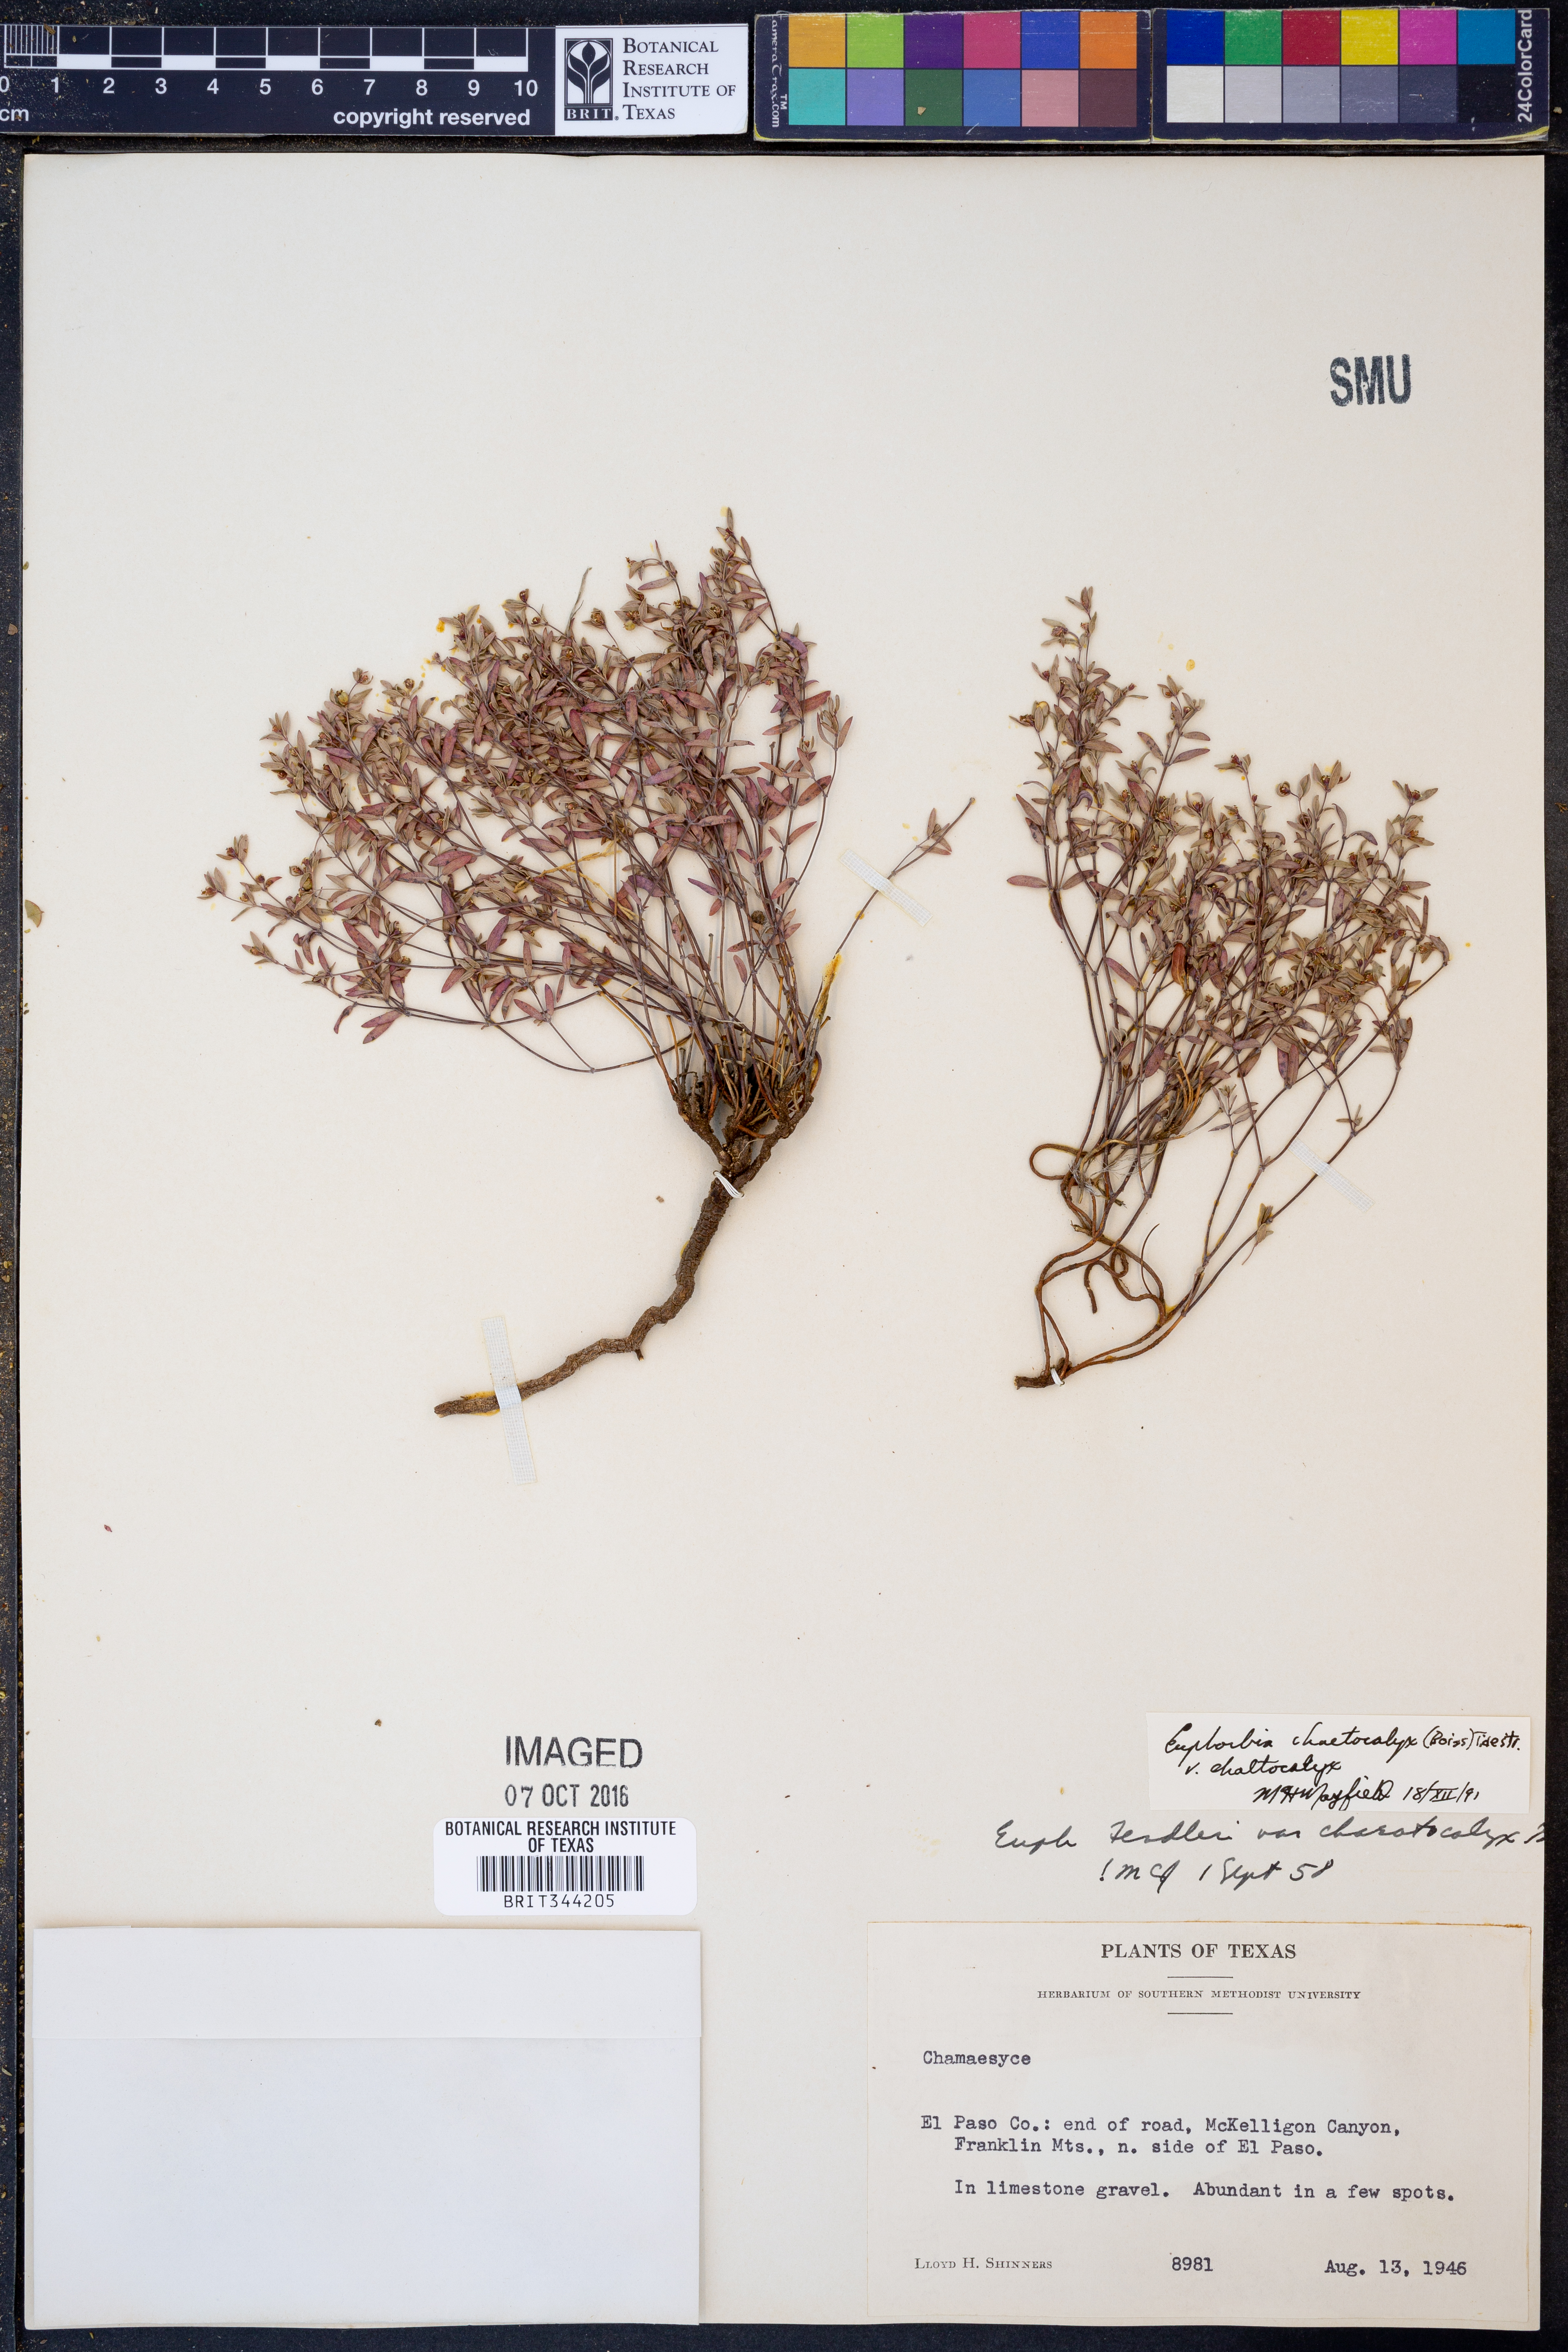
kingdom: Plantae
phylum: Tracheophyta
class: Magnoliopsida
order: Malpighiales
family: Euphorbiaceae
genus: Euphorbia
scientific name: Euphorbia chaetocalyx
